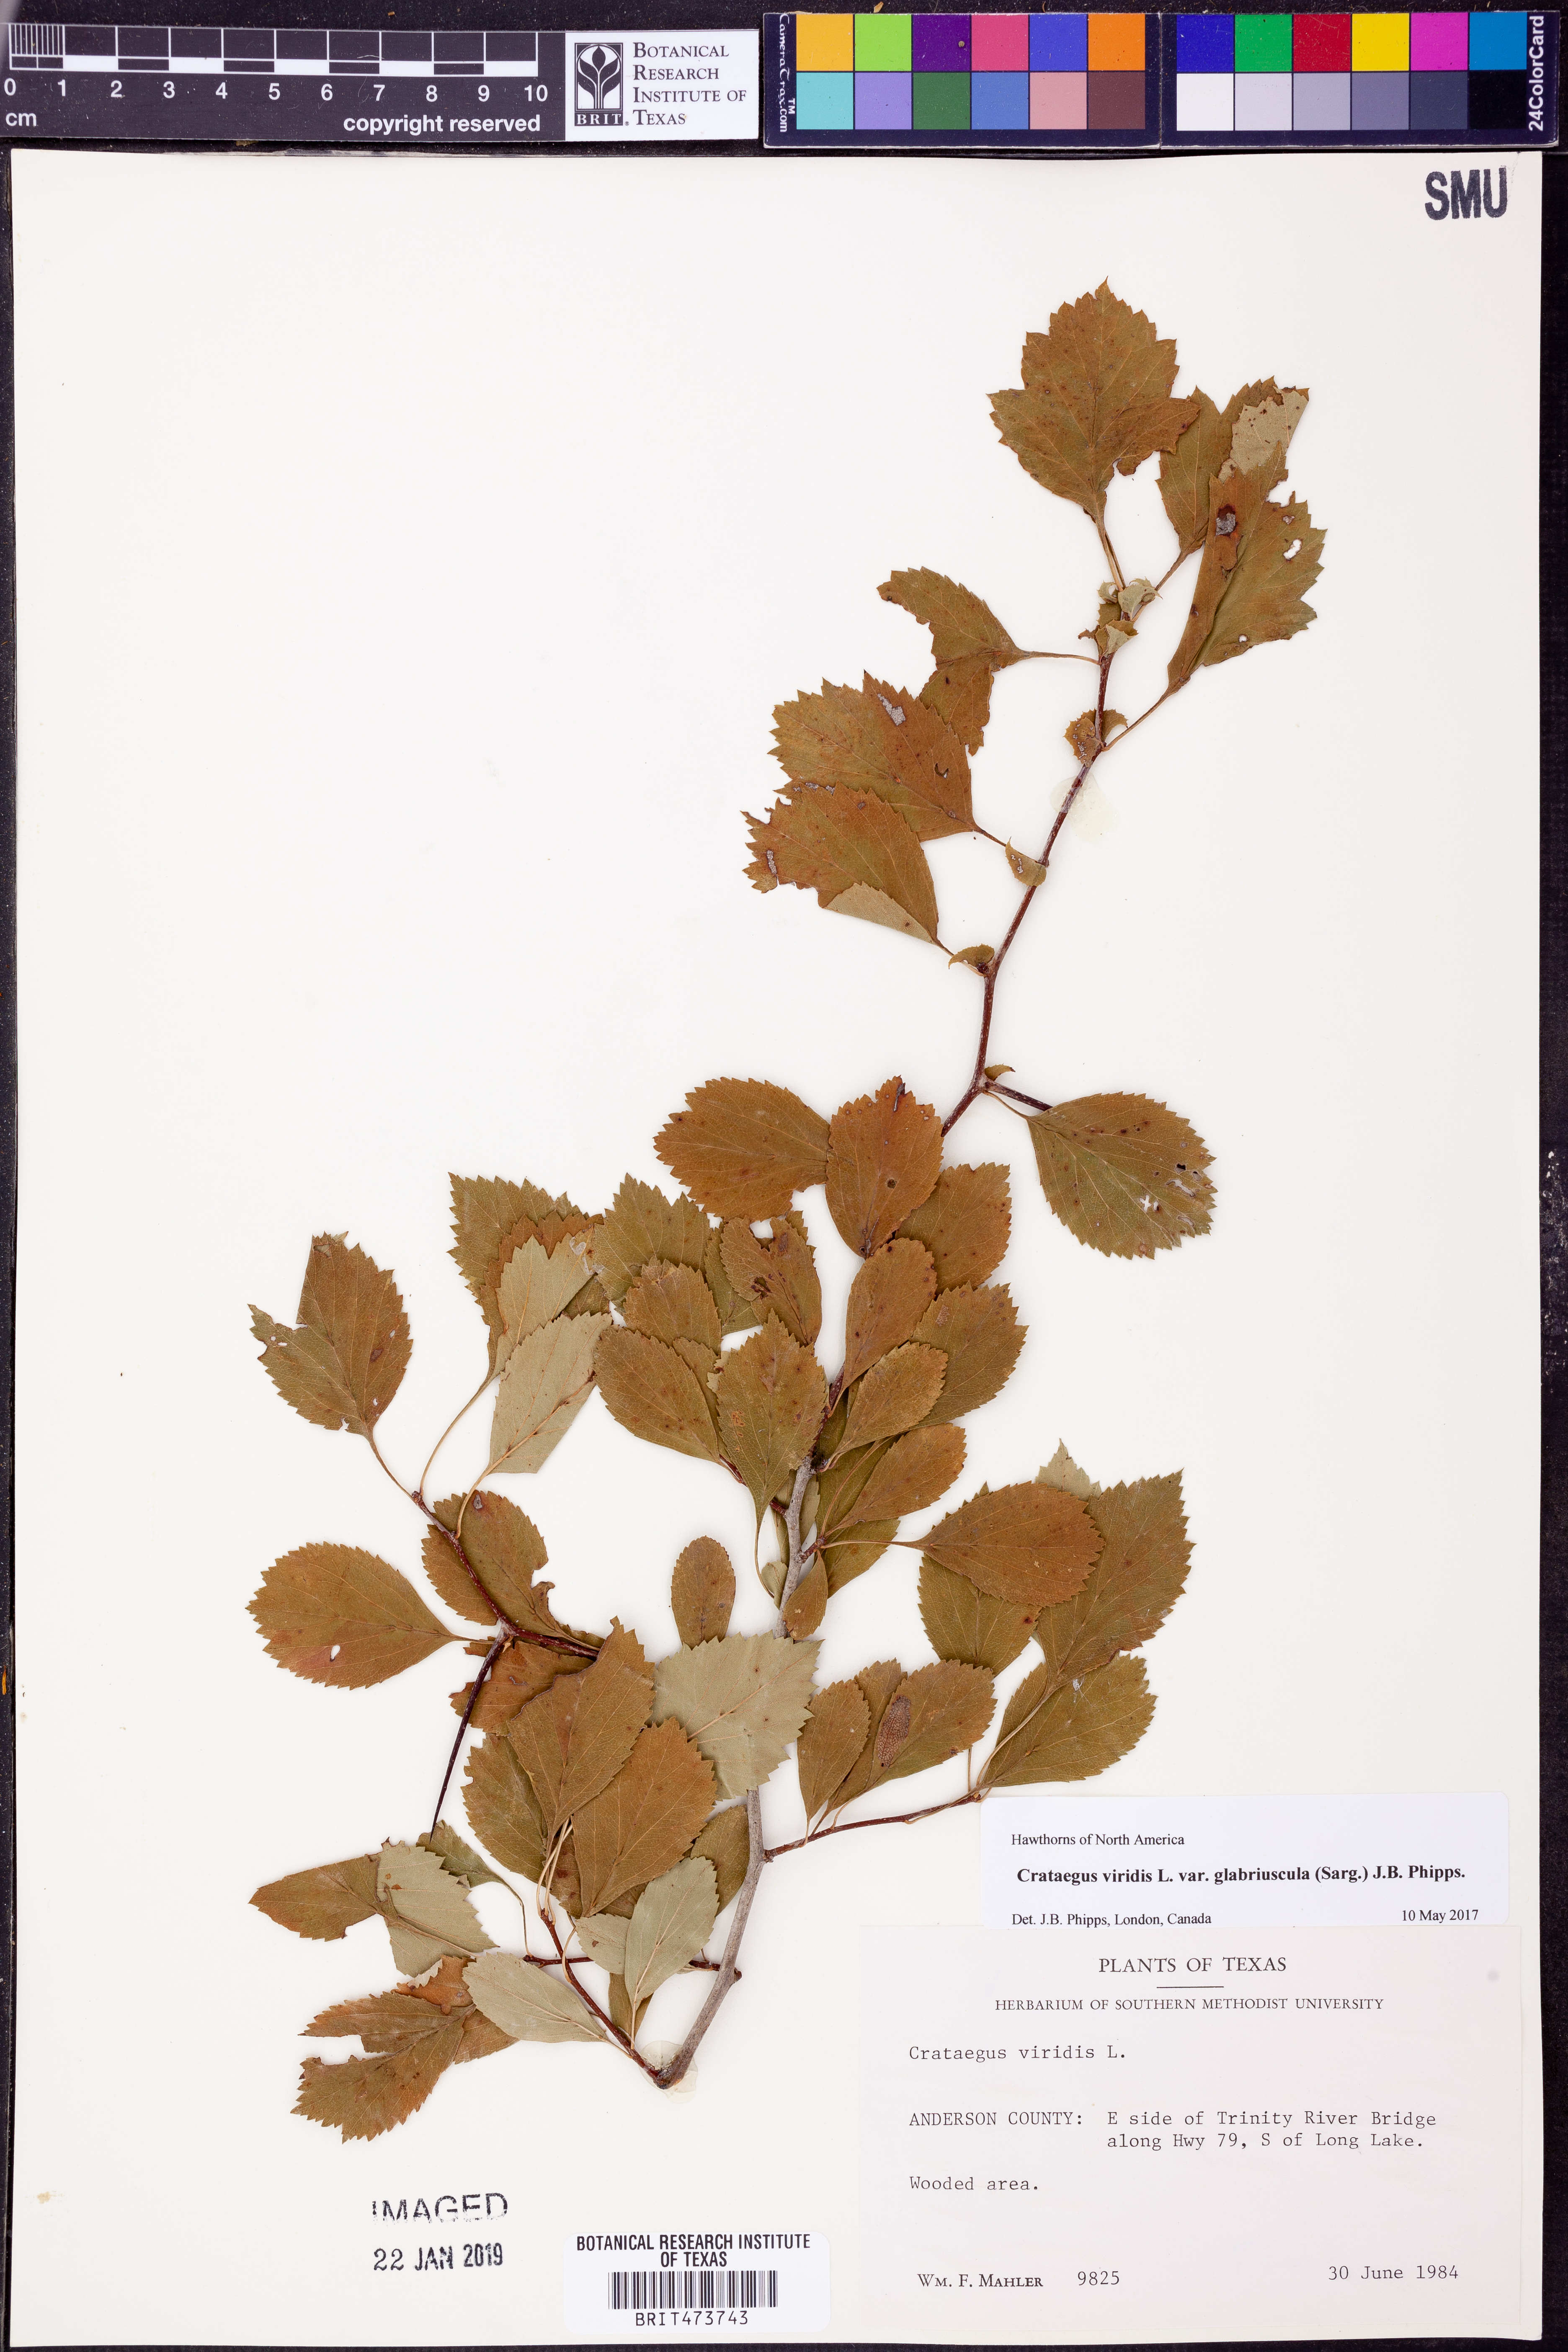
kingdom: Plantae
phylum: Tracheophyta
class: Magnoliopsida
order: Rosales
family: Rosaceae
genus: Crataegus
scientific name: Crataegus viridis
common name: Southernthorn
